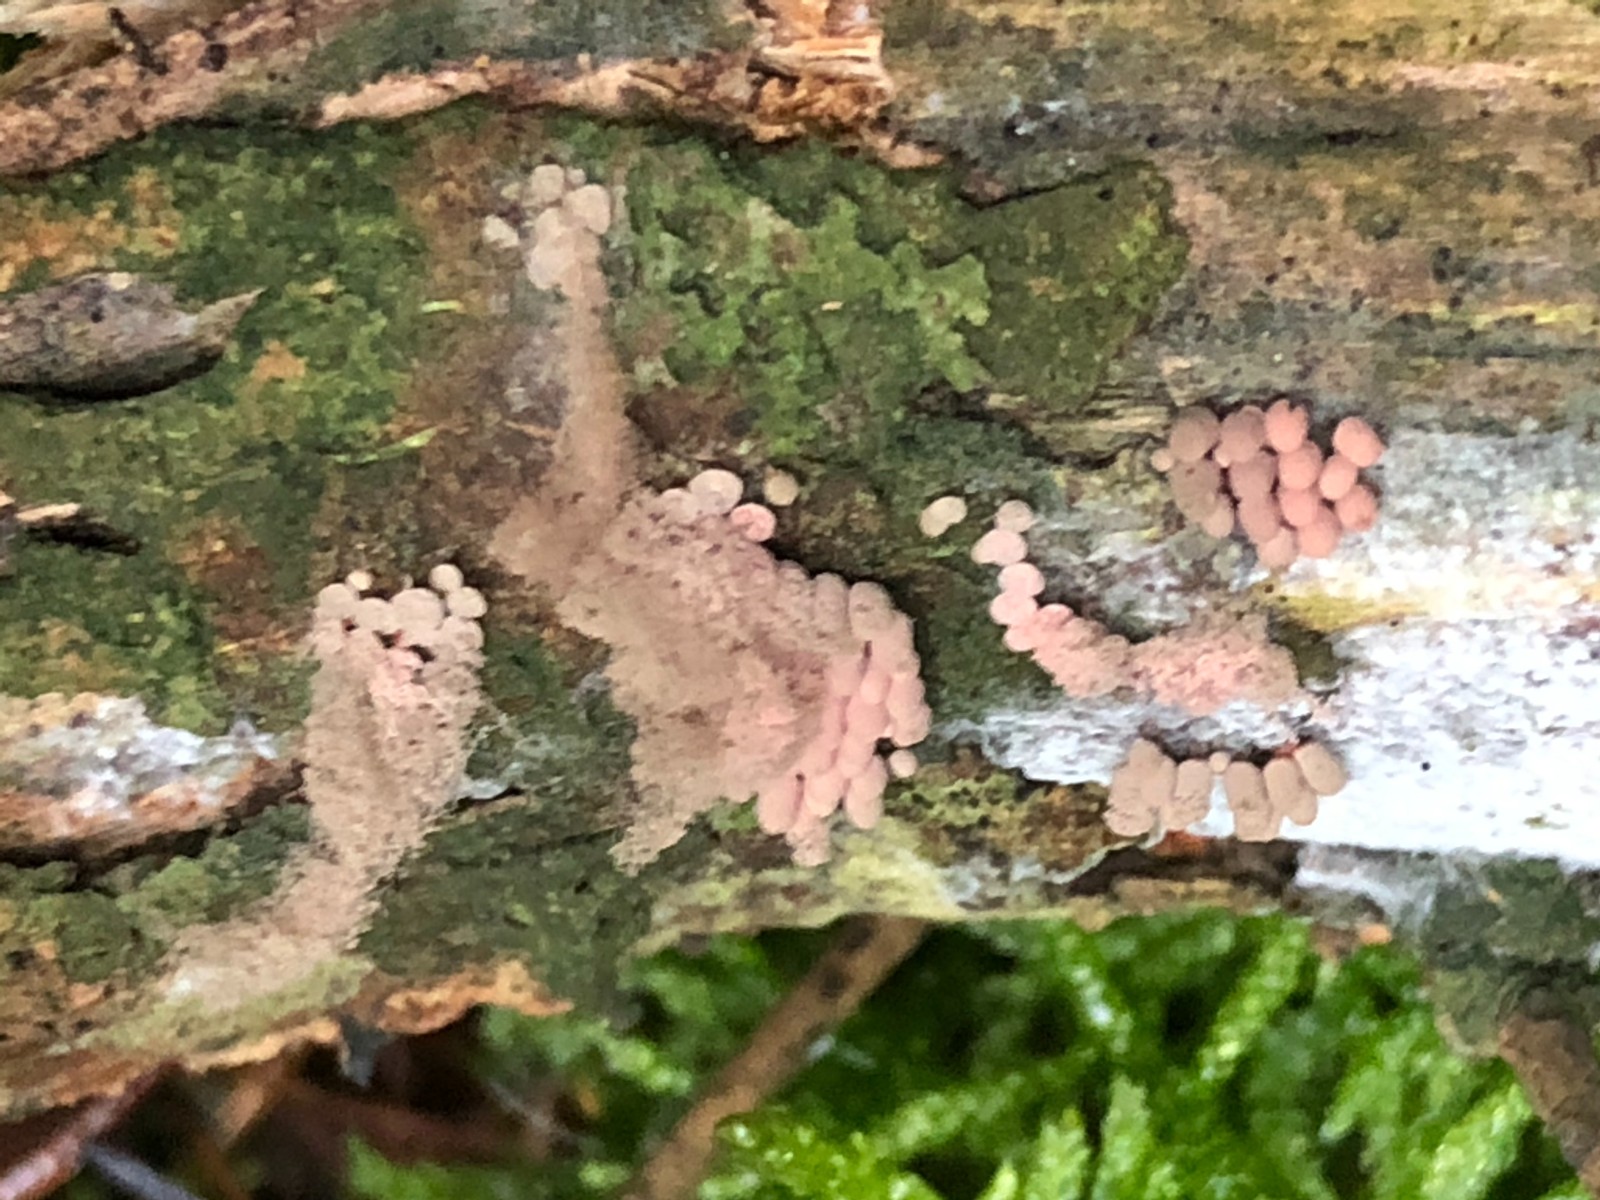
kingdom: Protozoa
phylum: Mycetozoa
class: Myxomycetes
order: Trichiales
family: Arcyriaceae
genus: Arcyria
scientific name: Arcyria incarnata
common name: rosa skålsvøb
